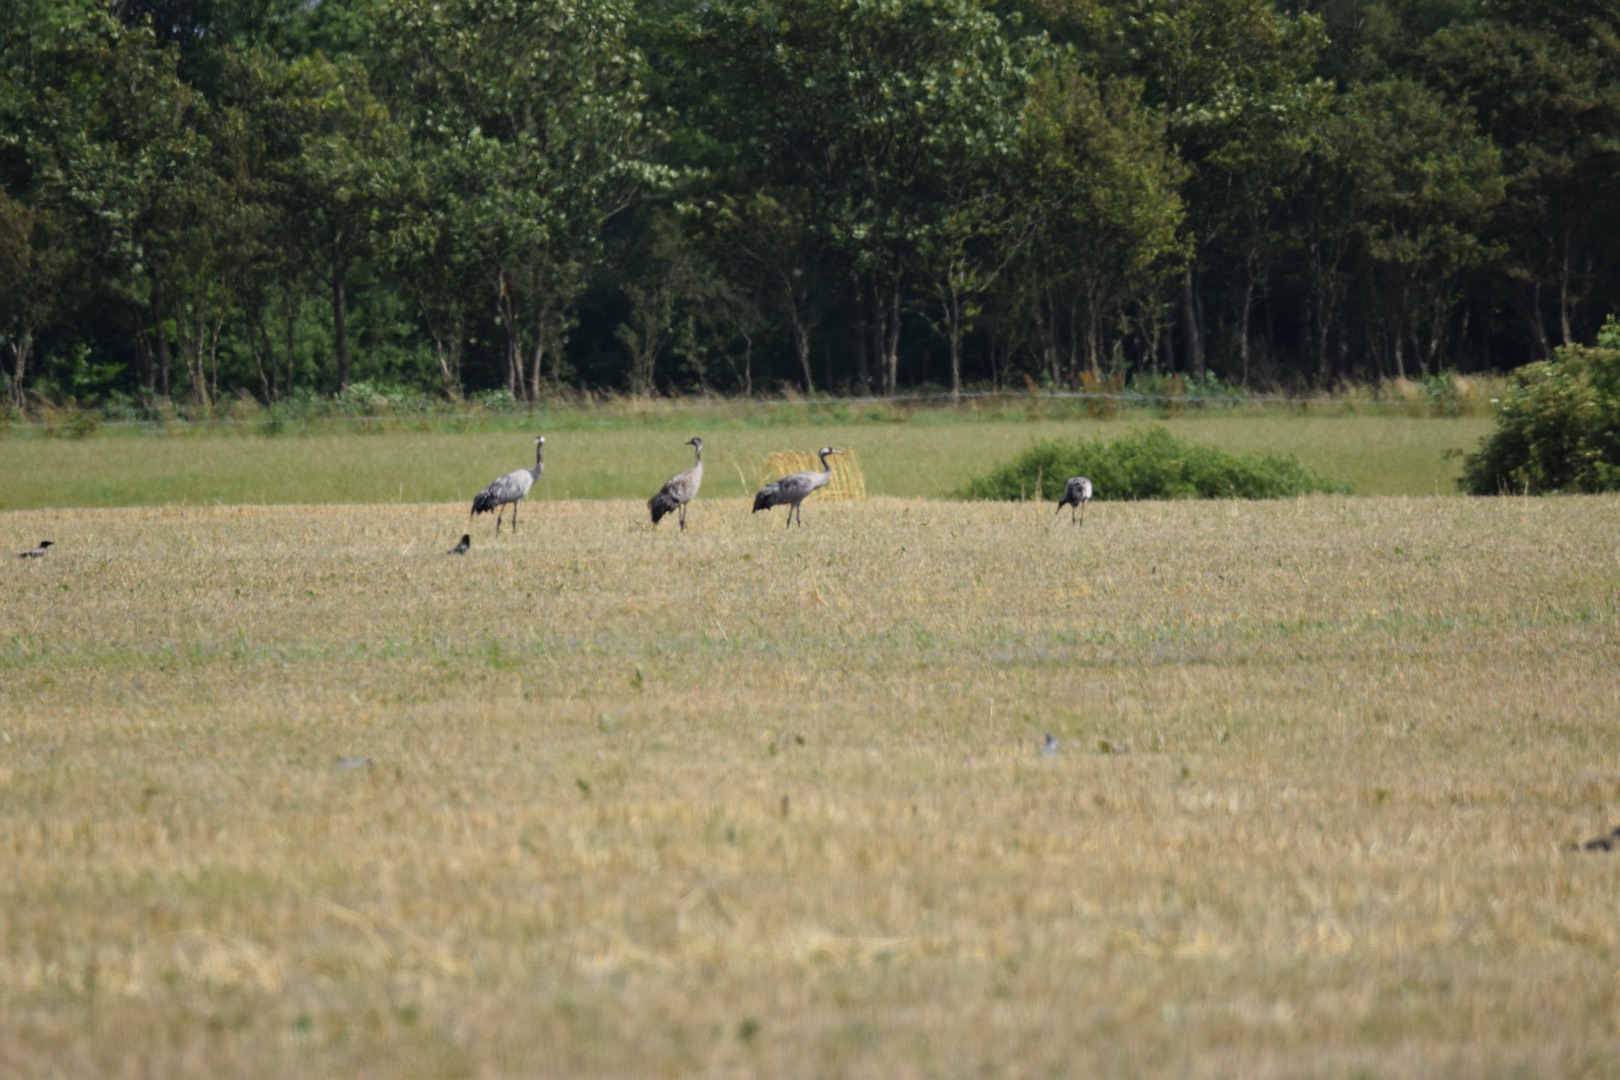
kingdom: Animalia
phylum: Chordata
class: Aves
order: Gruiformes
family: Gruidae
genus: Grus
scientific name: Grus grus
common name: Trane
